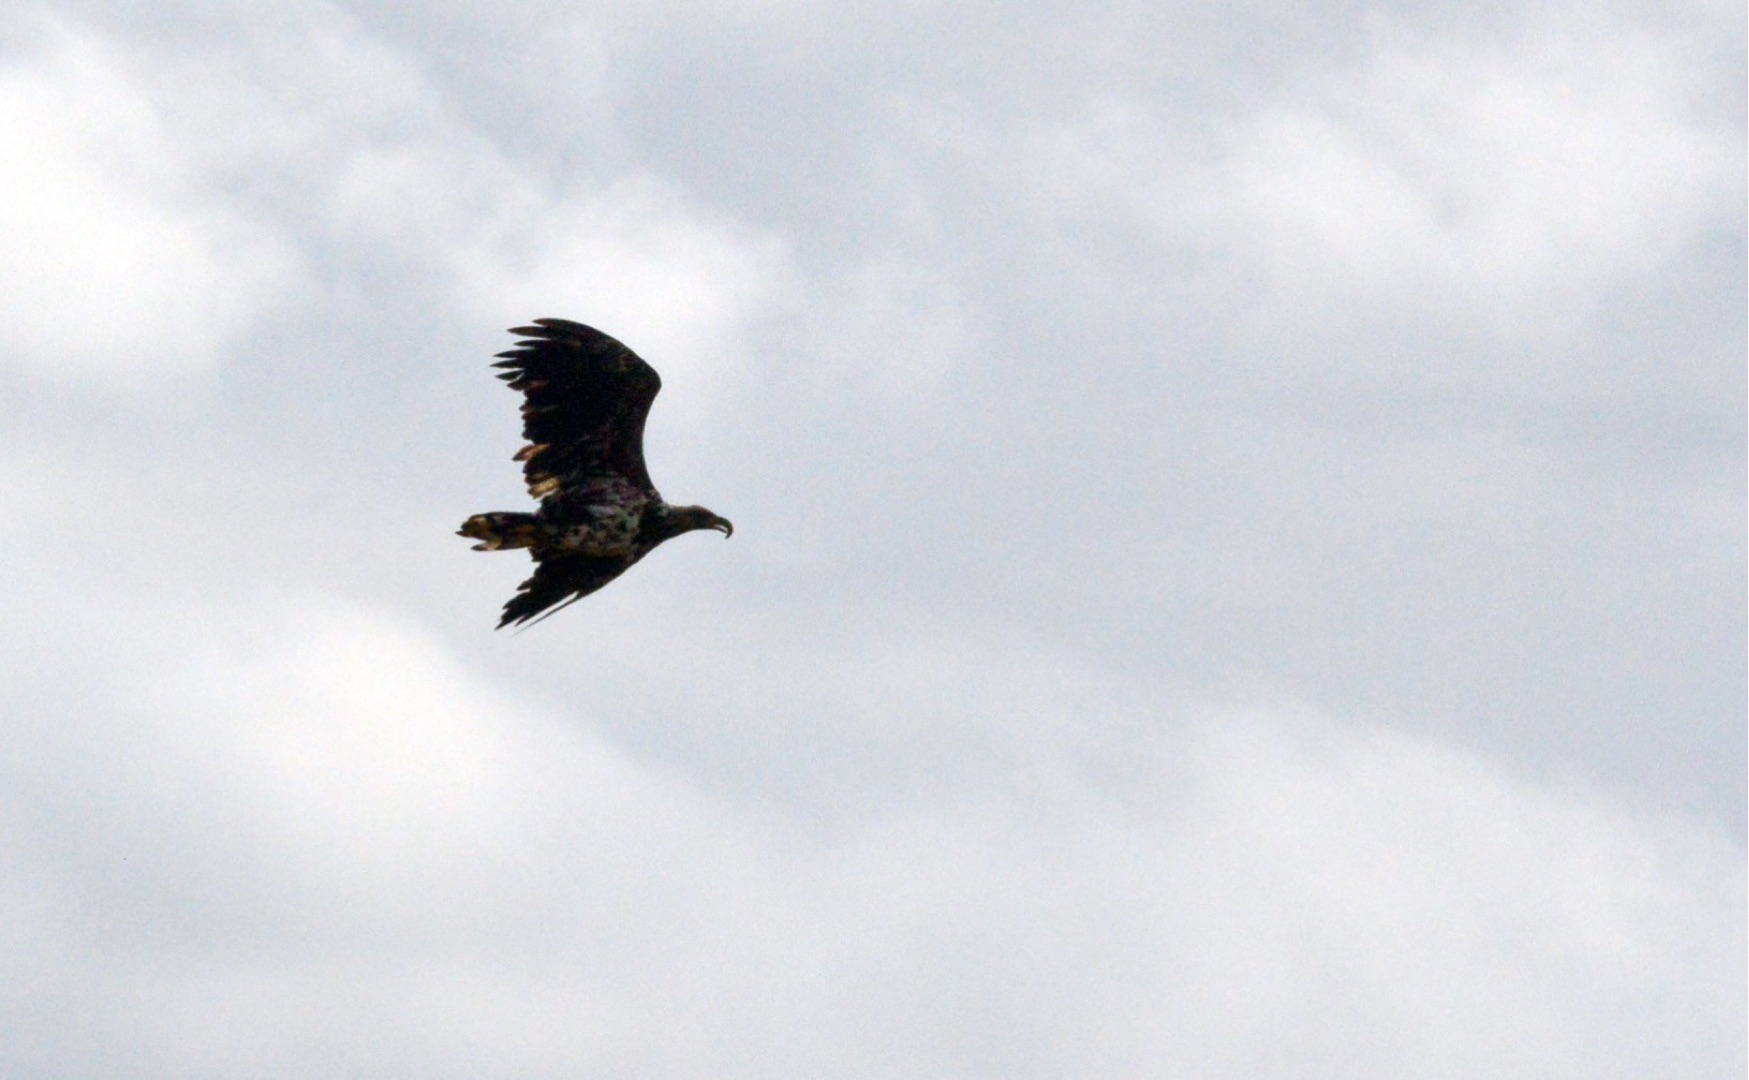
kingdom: Animalia
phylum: Chordata
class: Aves
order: Accipitriformes
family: Accipitridae
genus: Haliaeetus
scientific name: Haliaeetus albicilla
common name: Havørn
